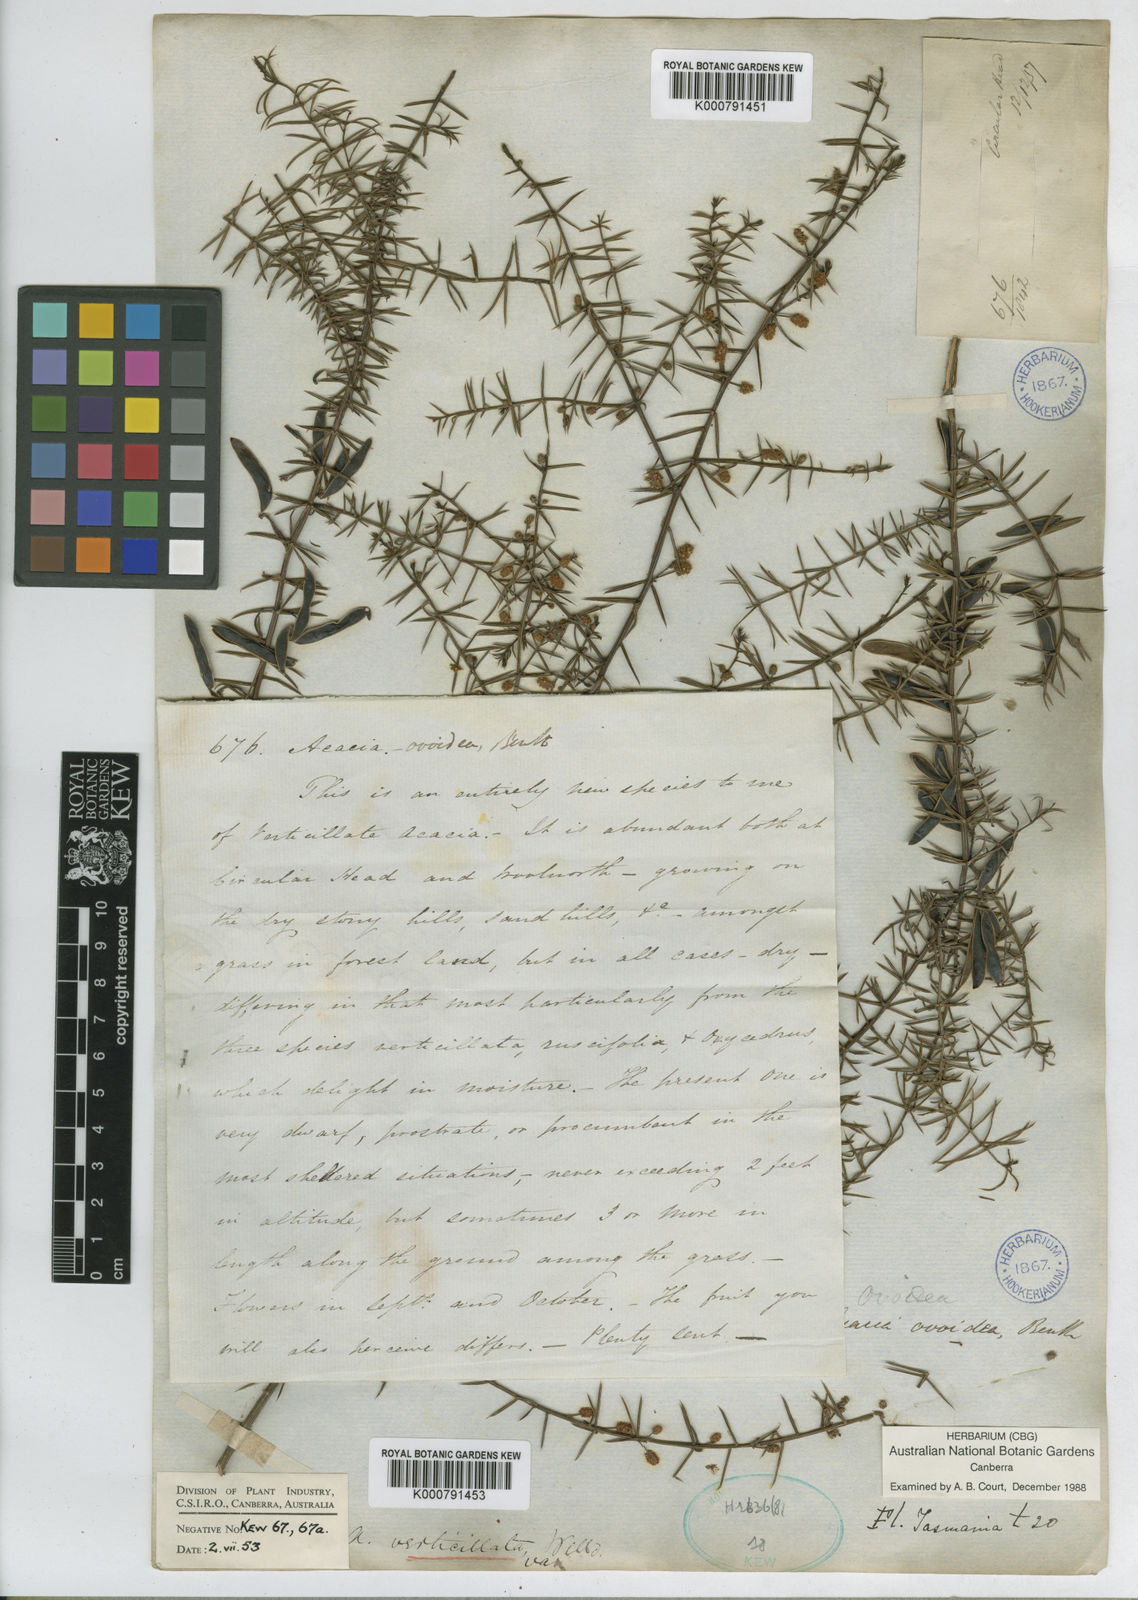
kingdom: Plantae
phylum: Tracheophyta
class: Magnoliopsida
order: Fabales
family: Fabaceae
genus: Acacia
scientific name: Acacia verticillata
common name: Prickly moses
